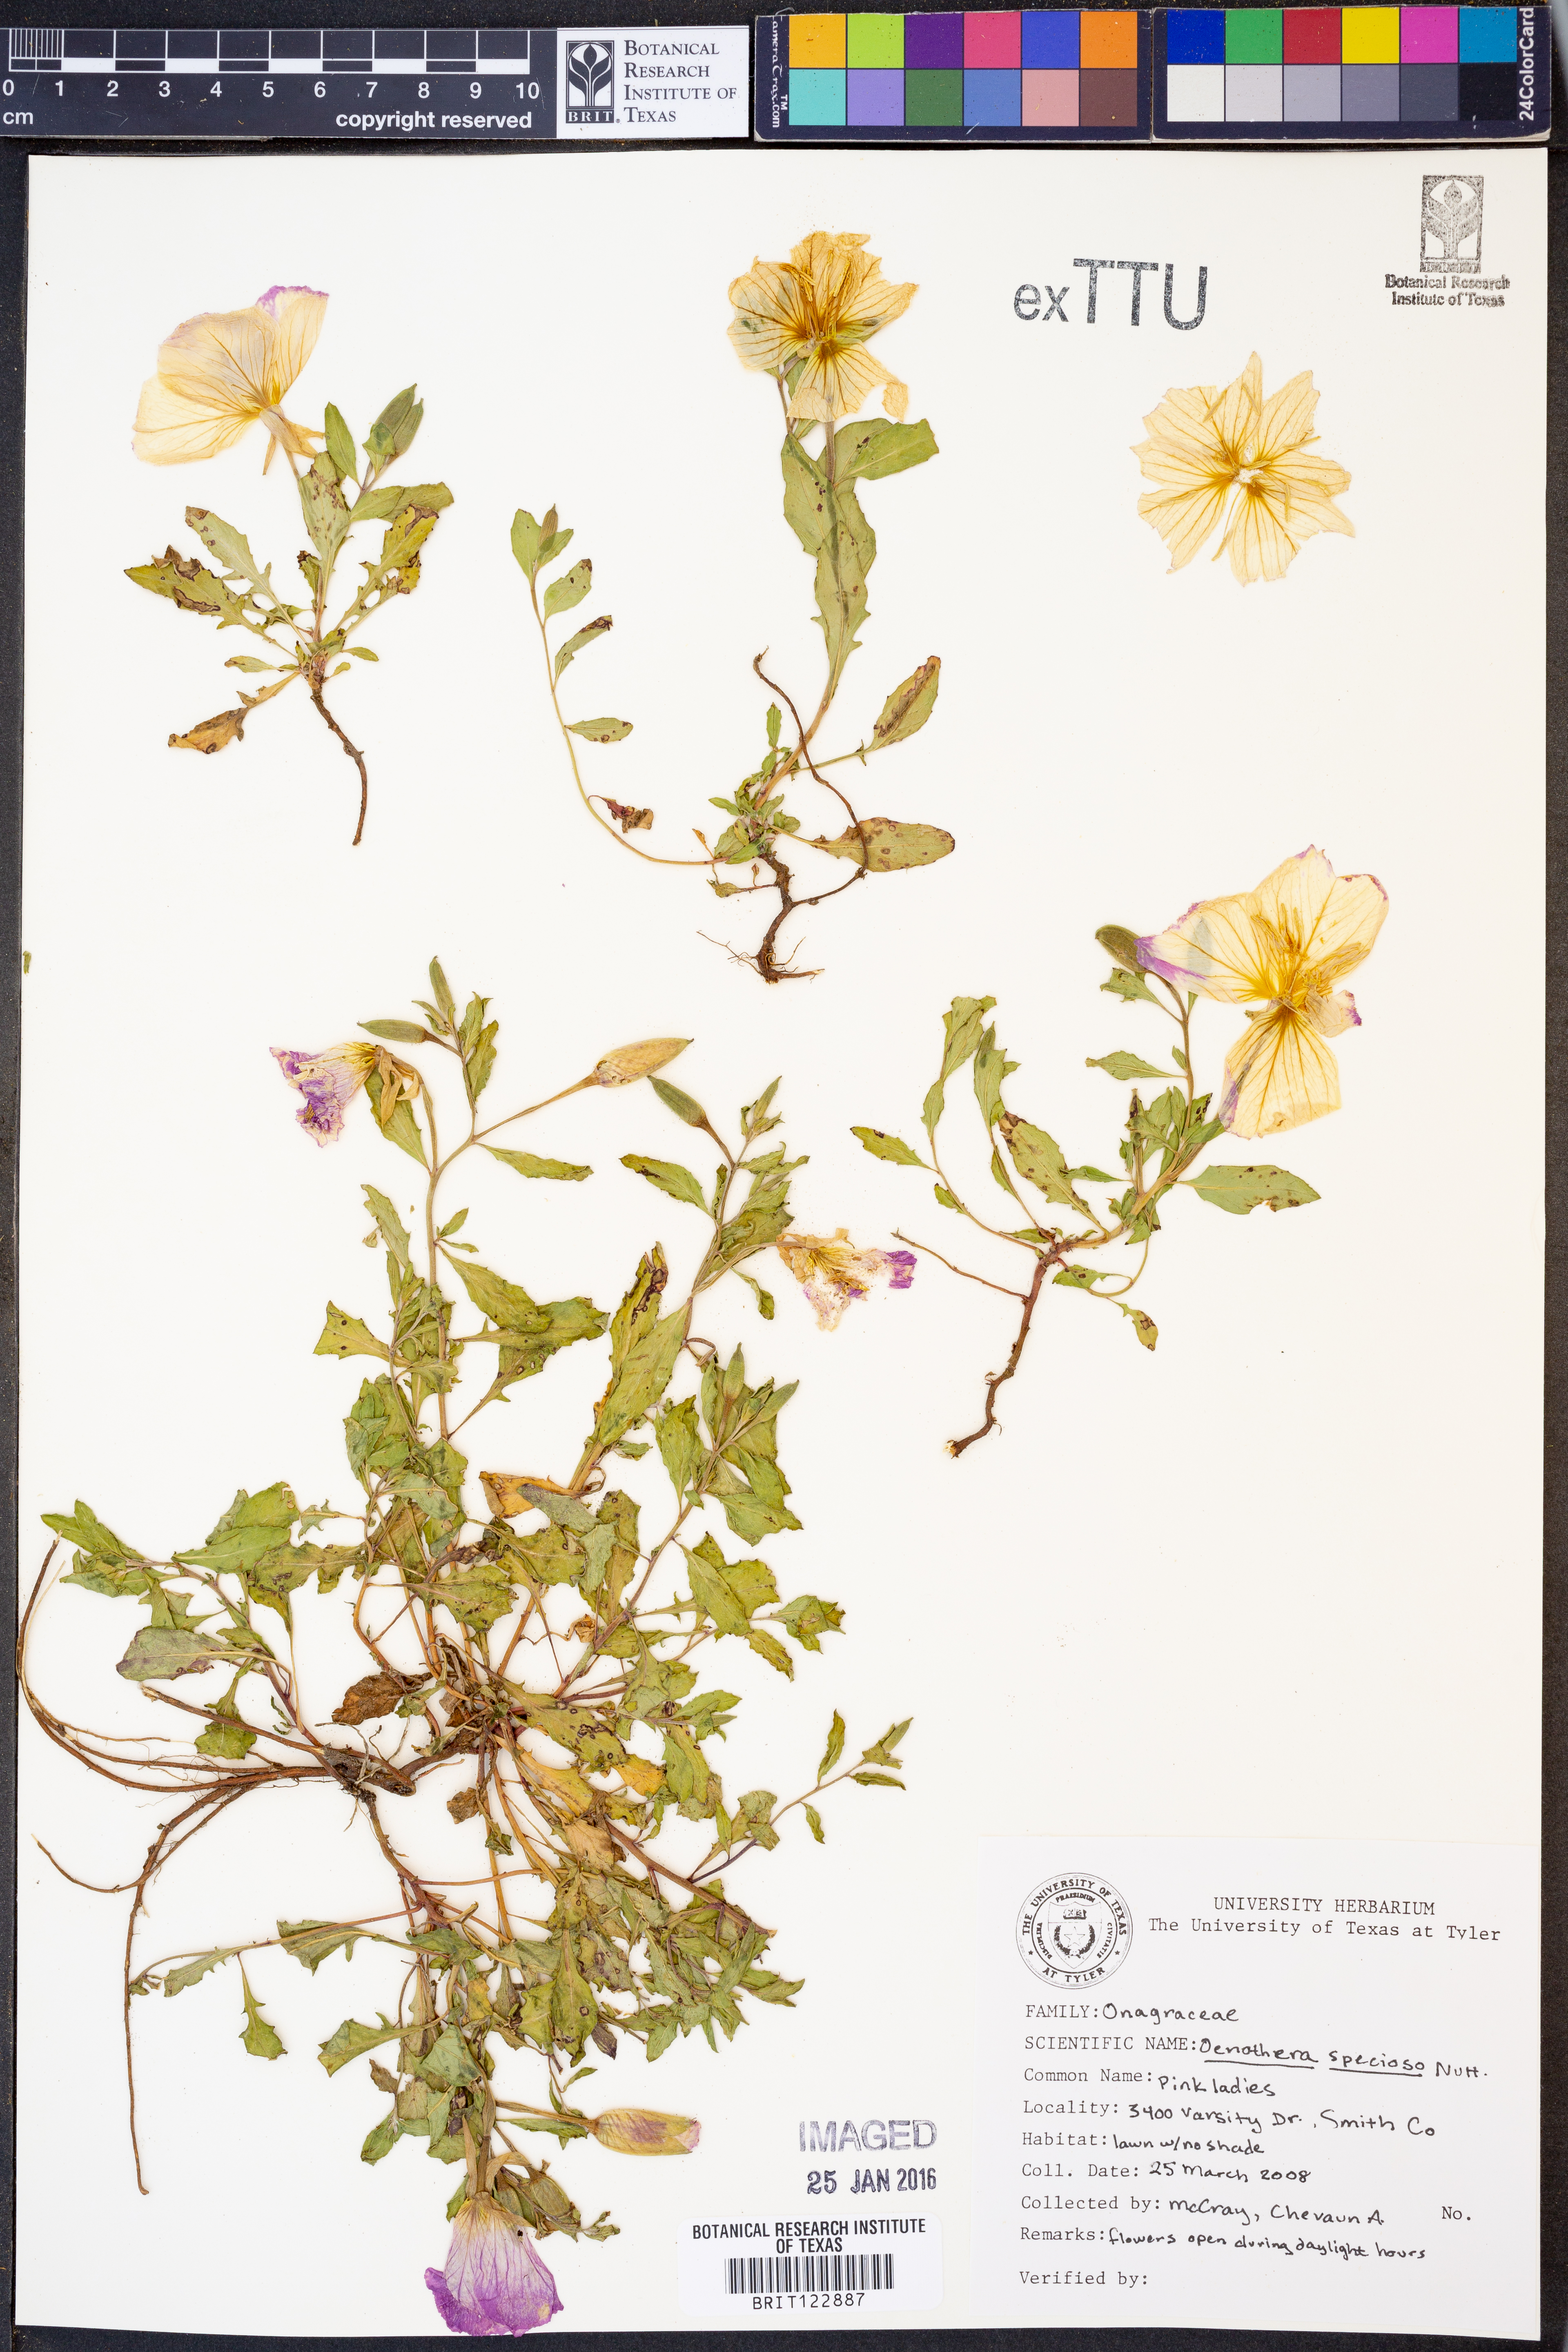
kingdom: Plantae
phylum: Tracheophyta
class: Magnoliopsida
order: Myrtales
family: Onagraceae
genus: Oenothera
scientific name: Oenothera speciosa
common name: White evening-primrose
